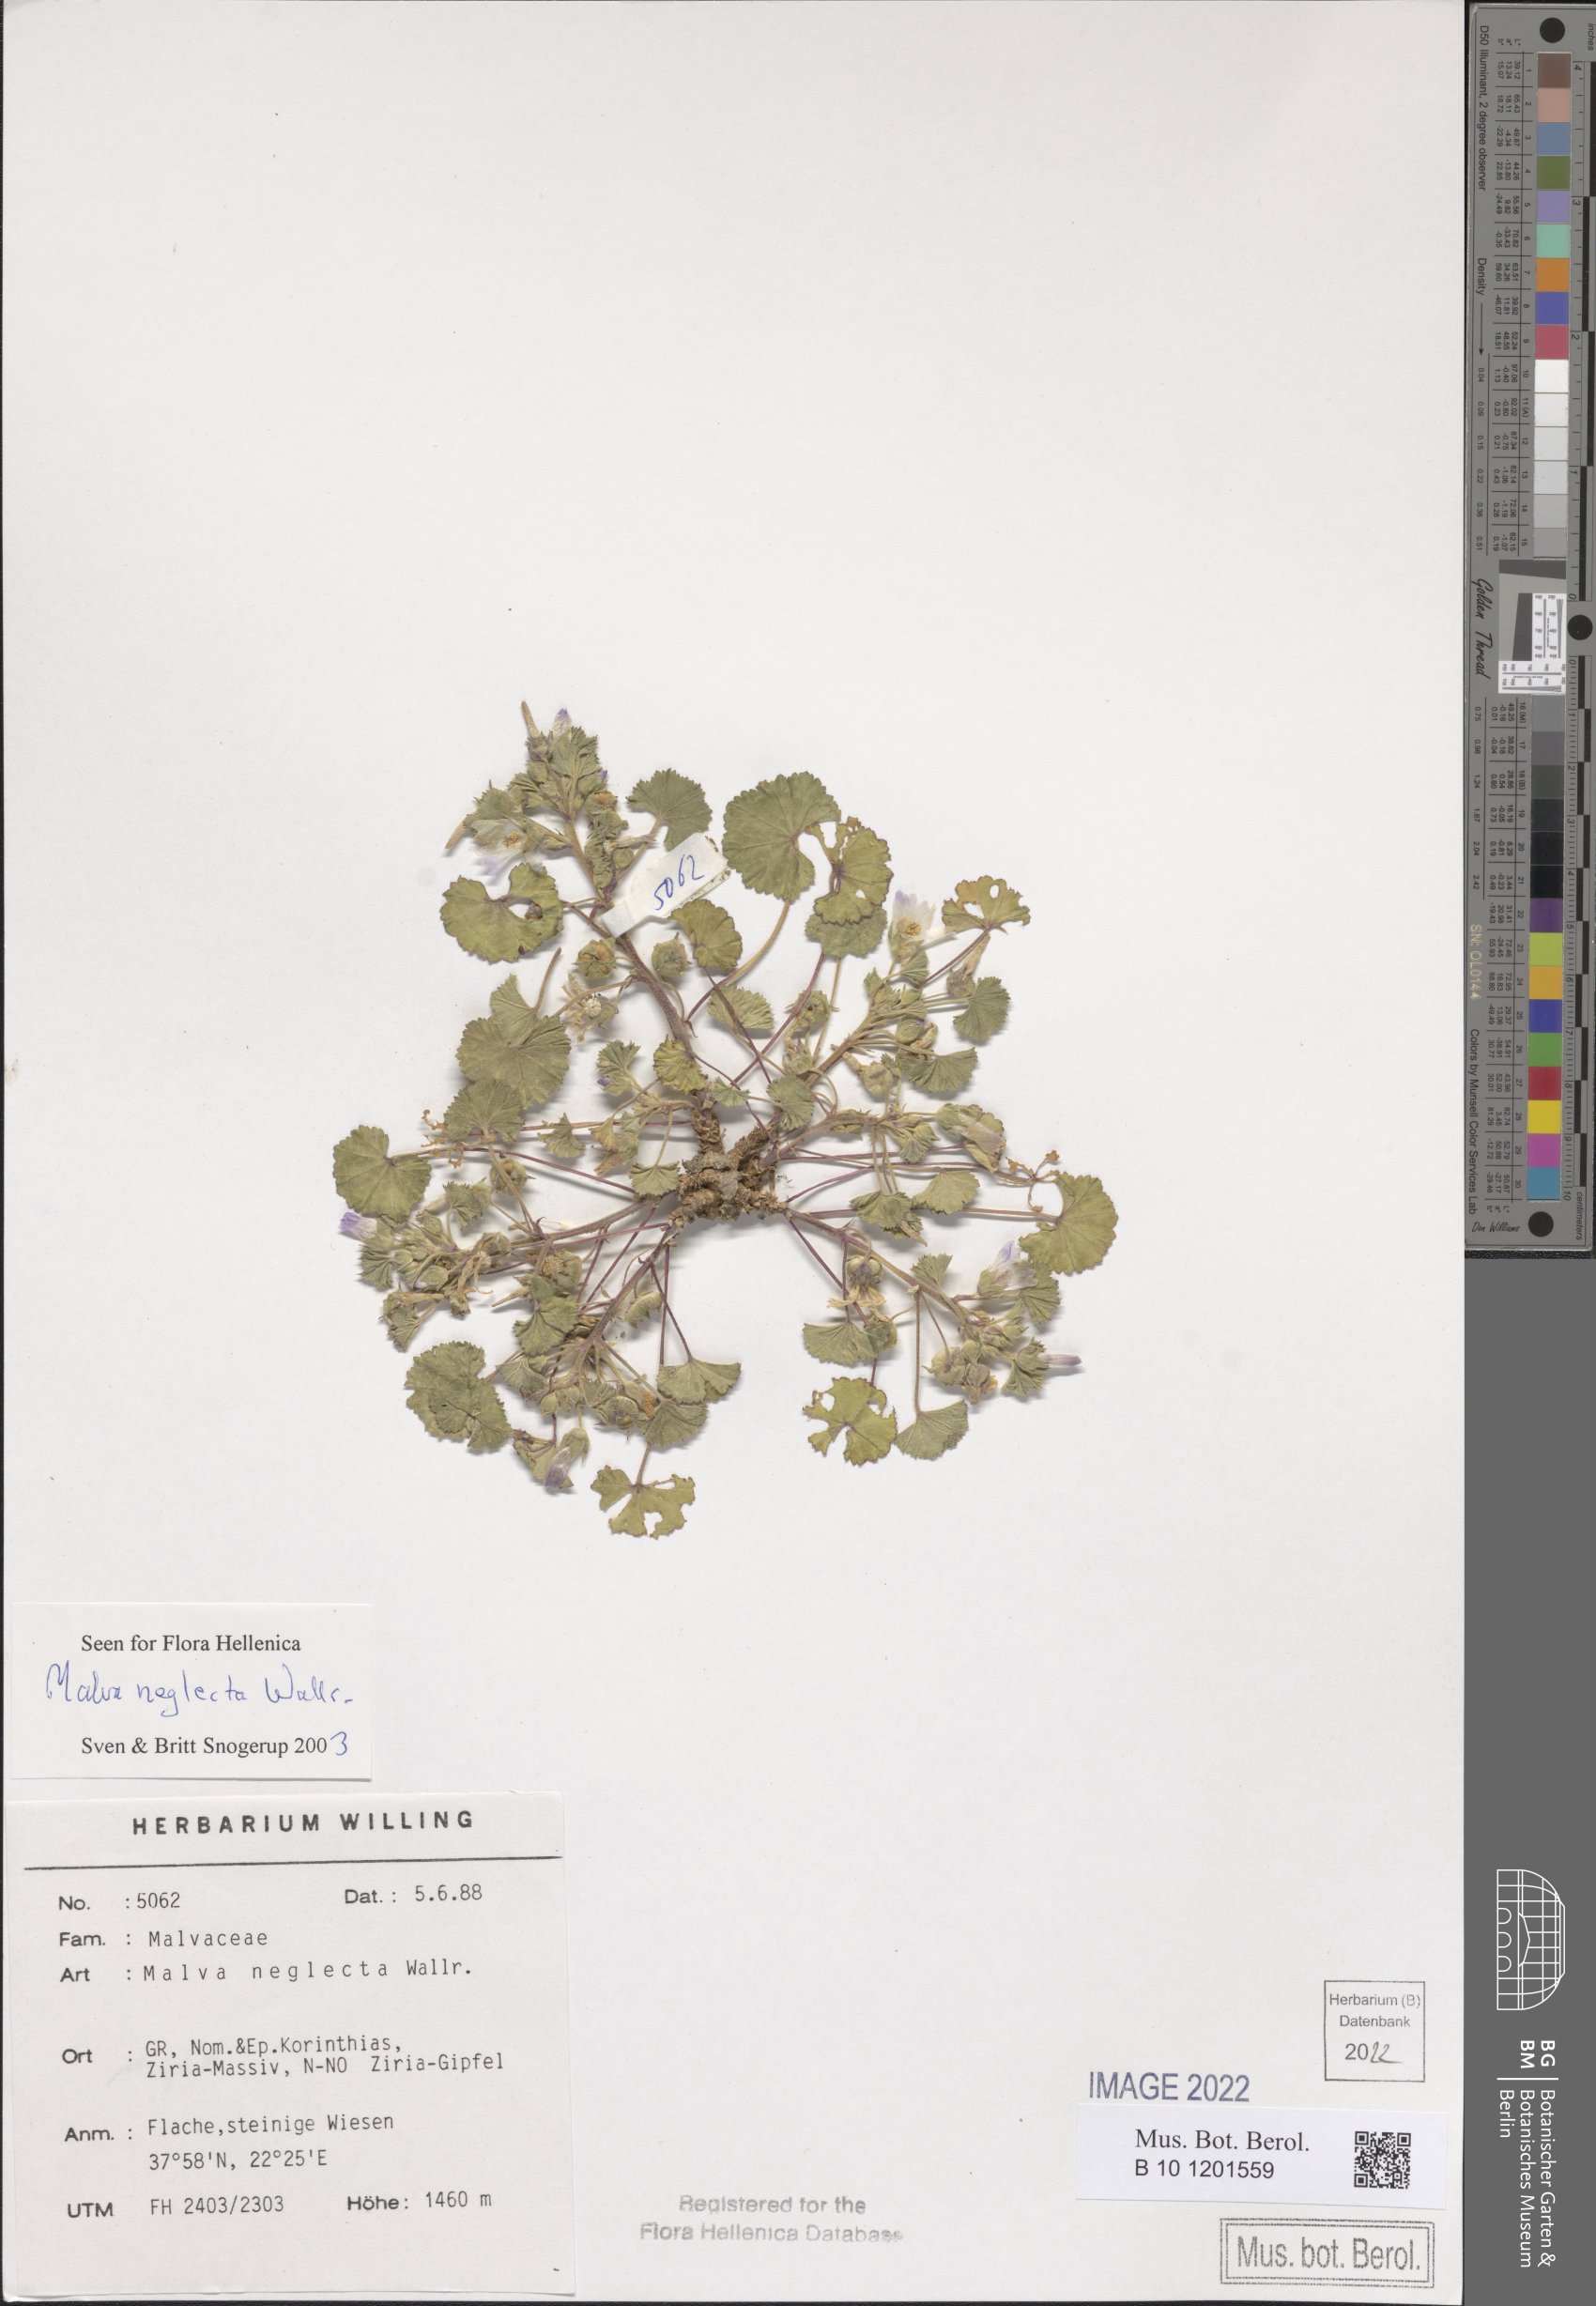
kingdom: Plantae
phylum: Tracheophyta
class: Magnoliopsida
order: Malvales
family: Malvaceae
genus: Malva
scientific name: Malva neglecta
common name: Common mallow
